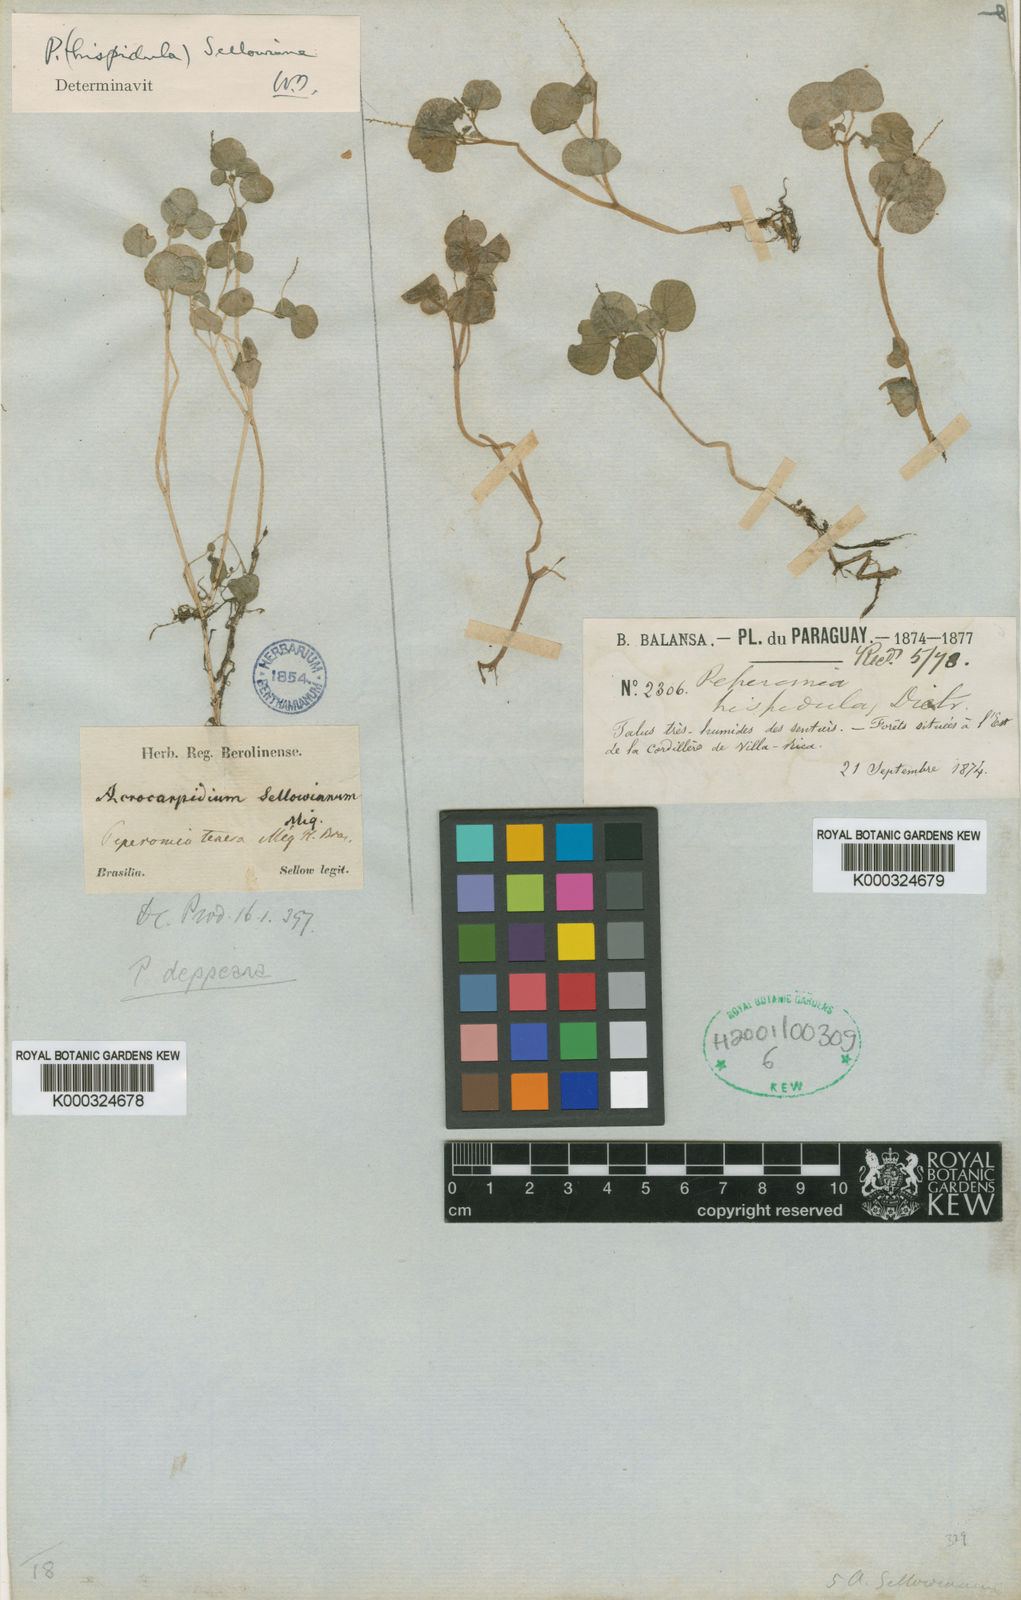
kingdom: Plantae
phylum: Tracheophyta
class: Magnoliopsida
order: Piperales
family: Piperaceae
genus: Peperomia
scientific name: Peperomia deppeana
